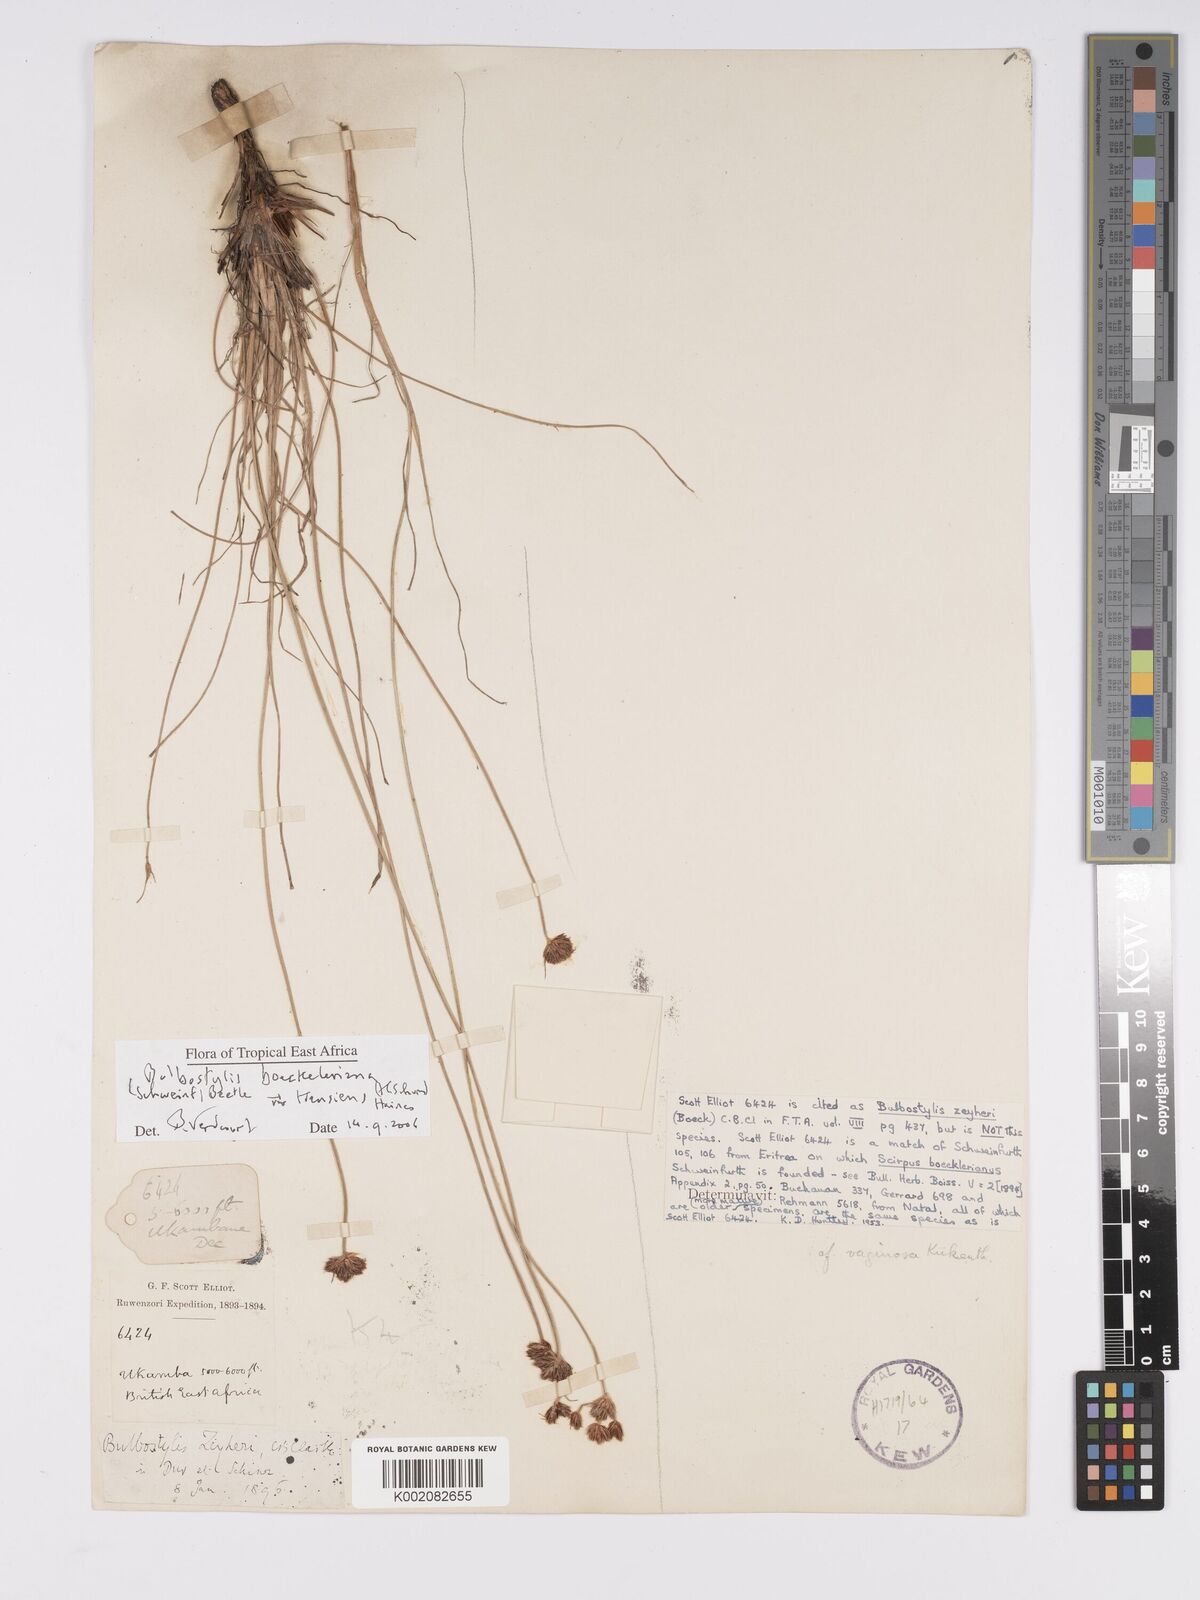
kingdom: Plantae
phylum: Tracheophyta
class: Liliopsida
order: Poales
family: Cyperaceae
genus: Bulbostylis
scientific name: Bulbostylis boeckeleriana
